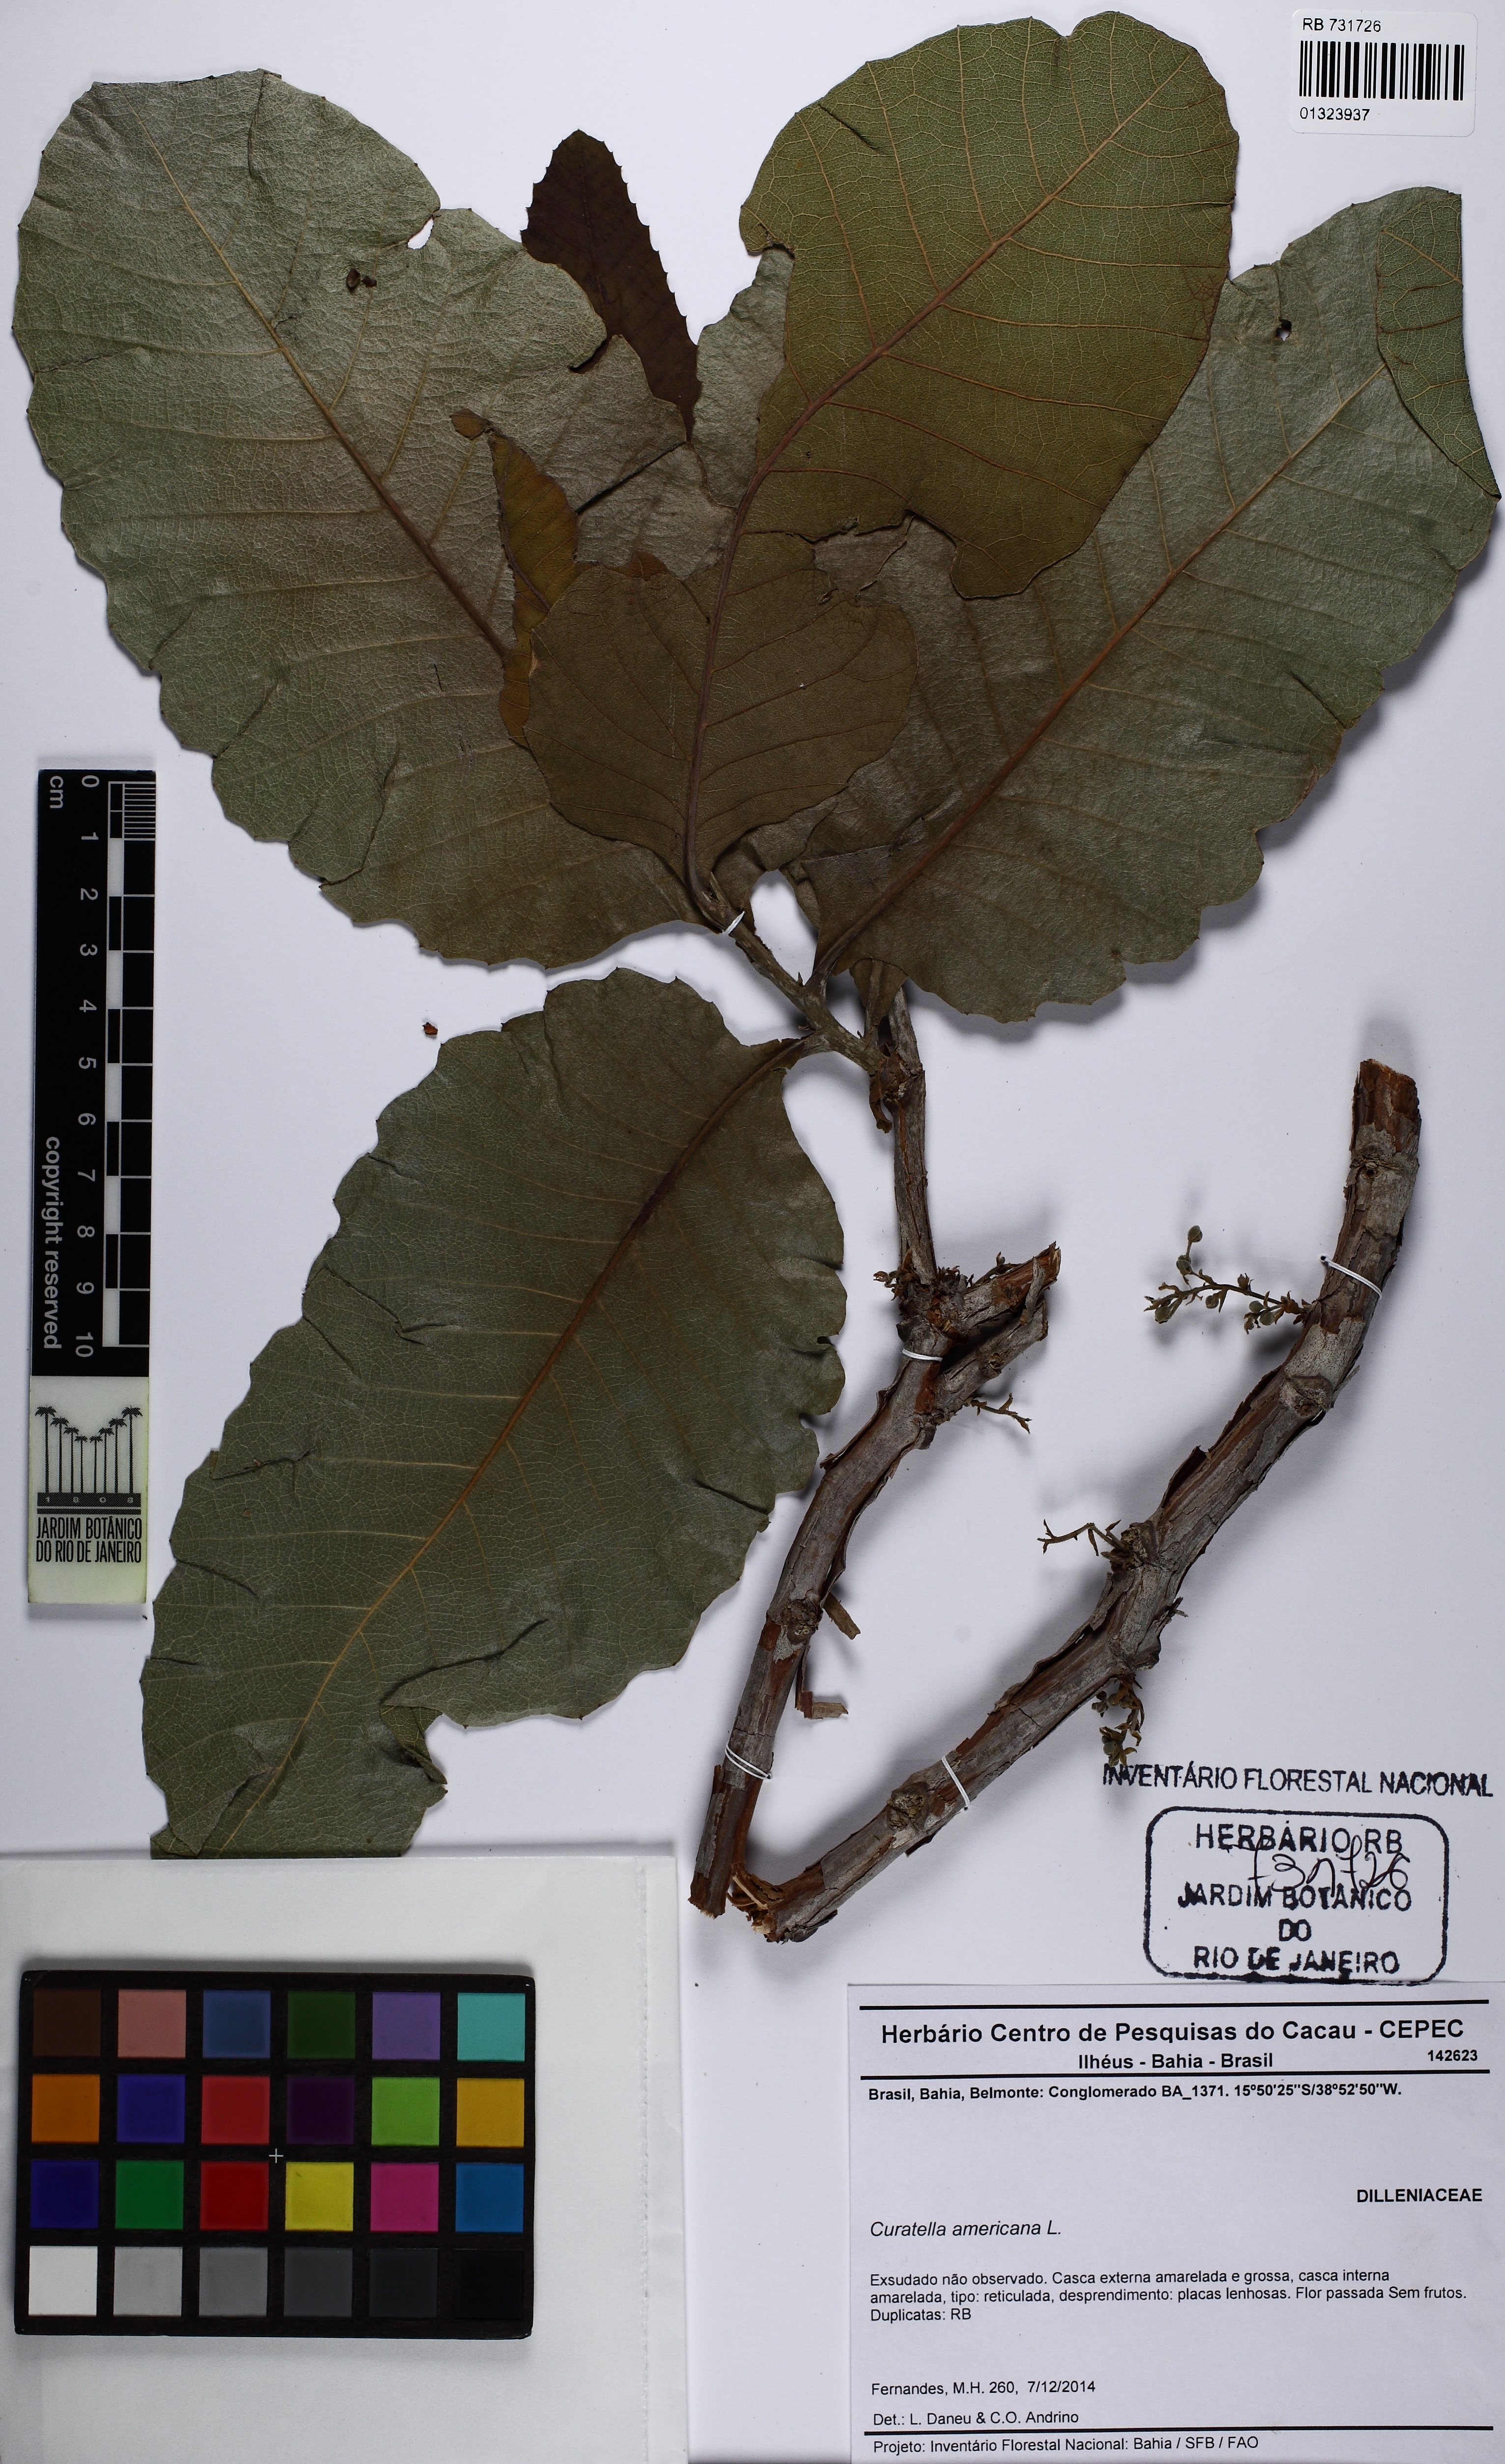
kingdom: Plantae
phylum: Tracheophyta
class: Magnoliopsida
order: Dilleniales
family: Dilleniaceae
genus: Curatella
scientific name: Curatella americana
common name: Sandpaper tree
